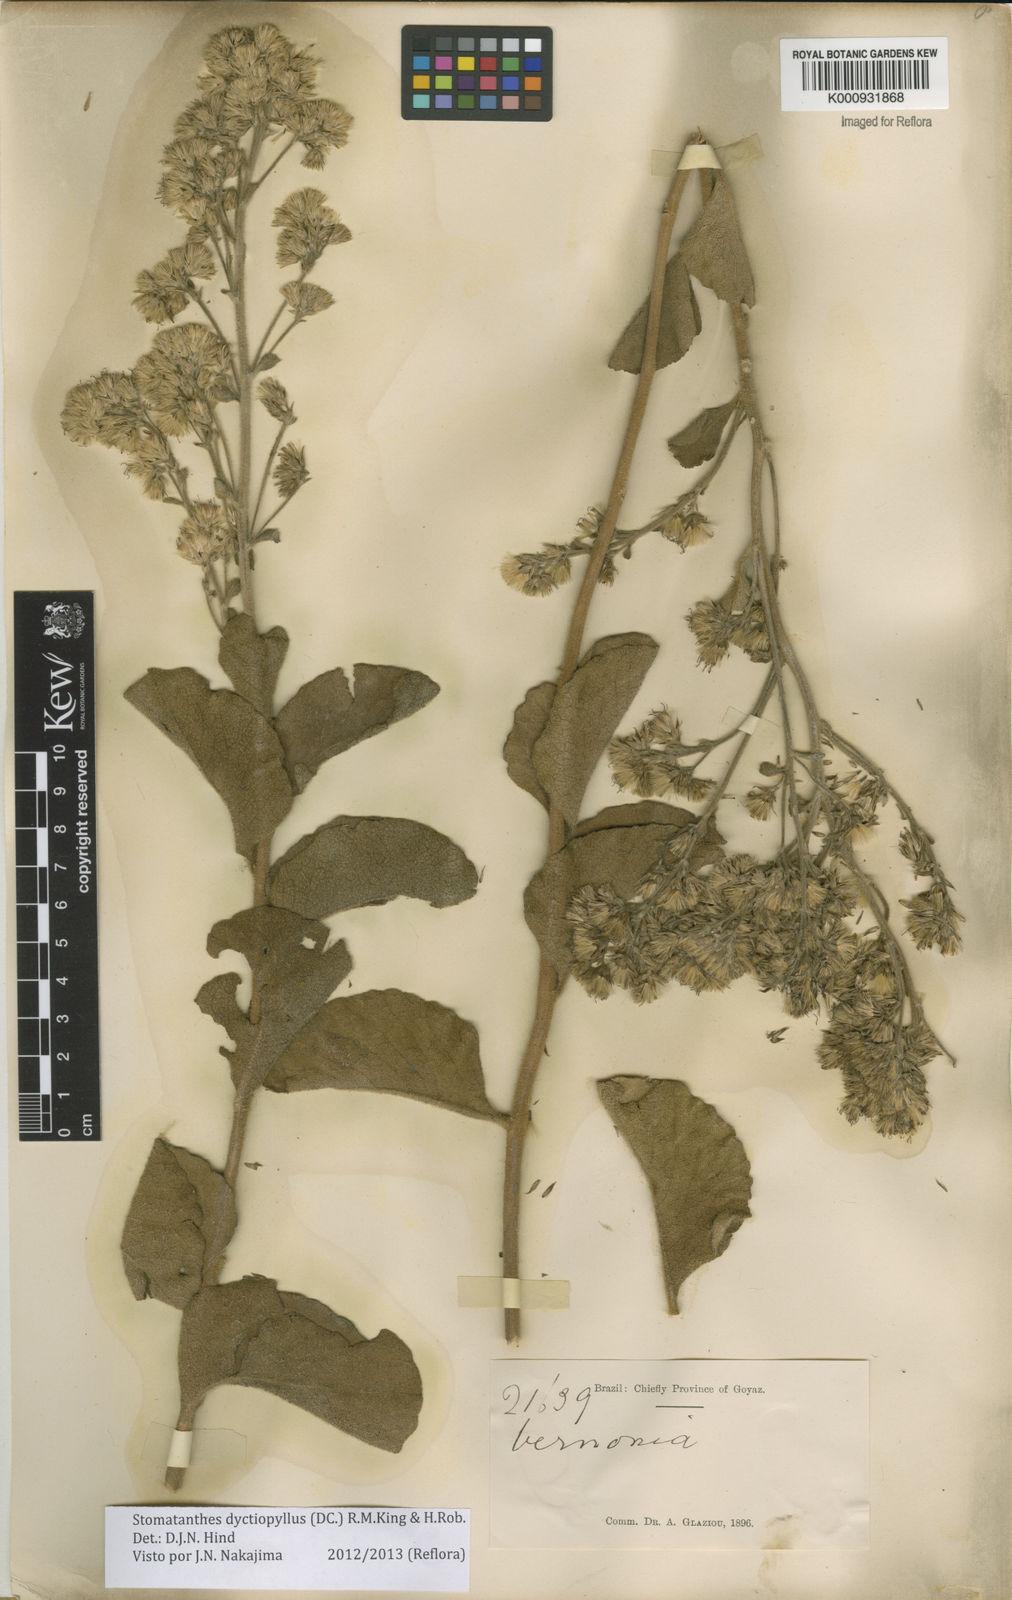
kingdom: Plantae
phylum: Tracheophyta
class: Magnoliopsida
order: Asterales
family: Asteraceae
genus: Stomatanthes
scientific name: Stomatanthes dictyophyllus
